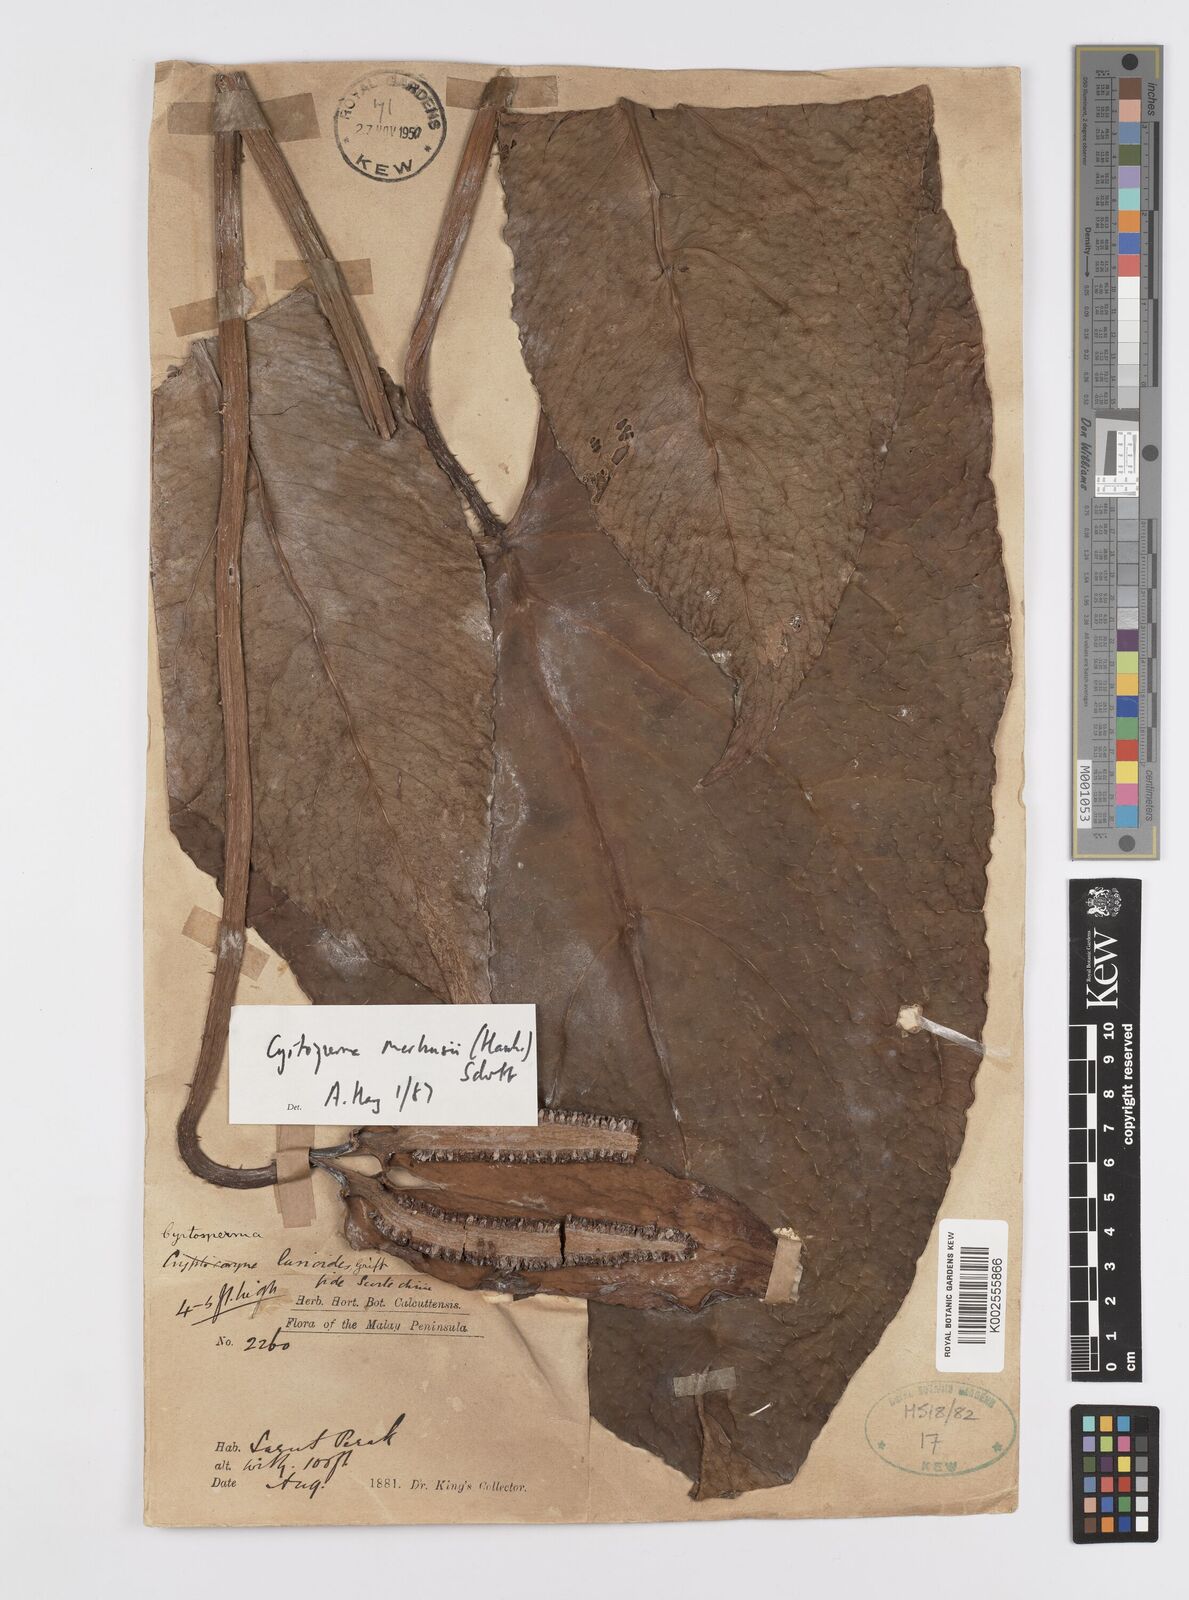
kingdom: Plantae
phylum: Tracheophyta
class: Liliopsida
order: Alismatales
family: Araceae
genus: Cyrtosperma
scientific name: Cyrtosperma merkusii
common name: Giant swamp-taro
